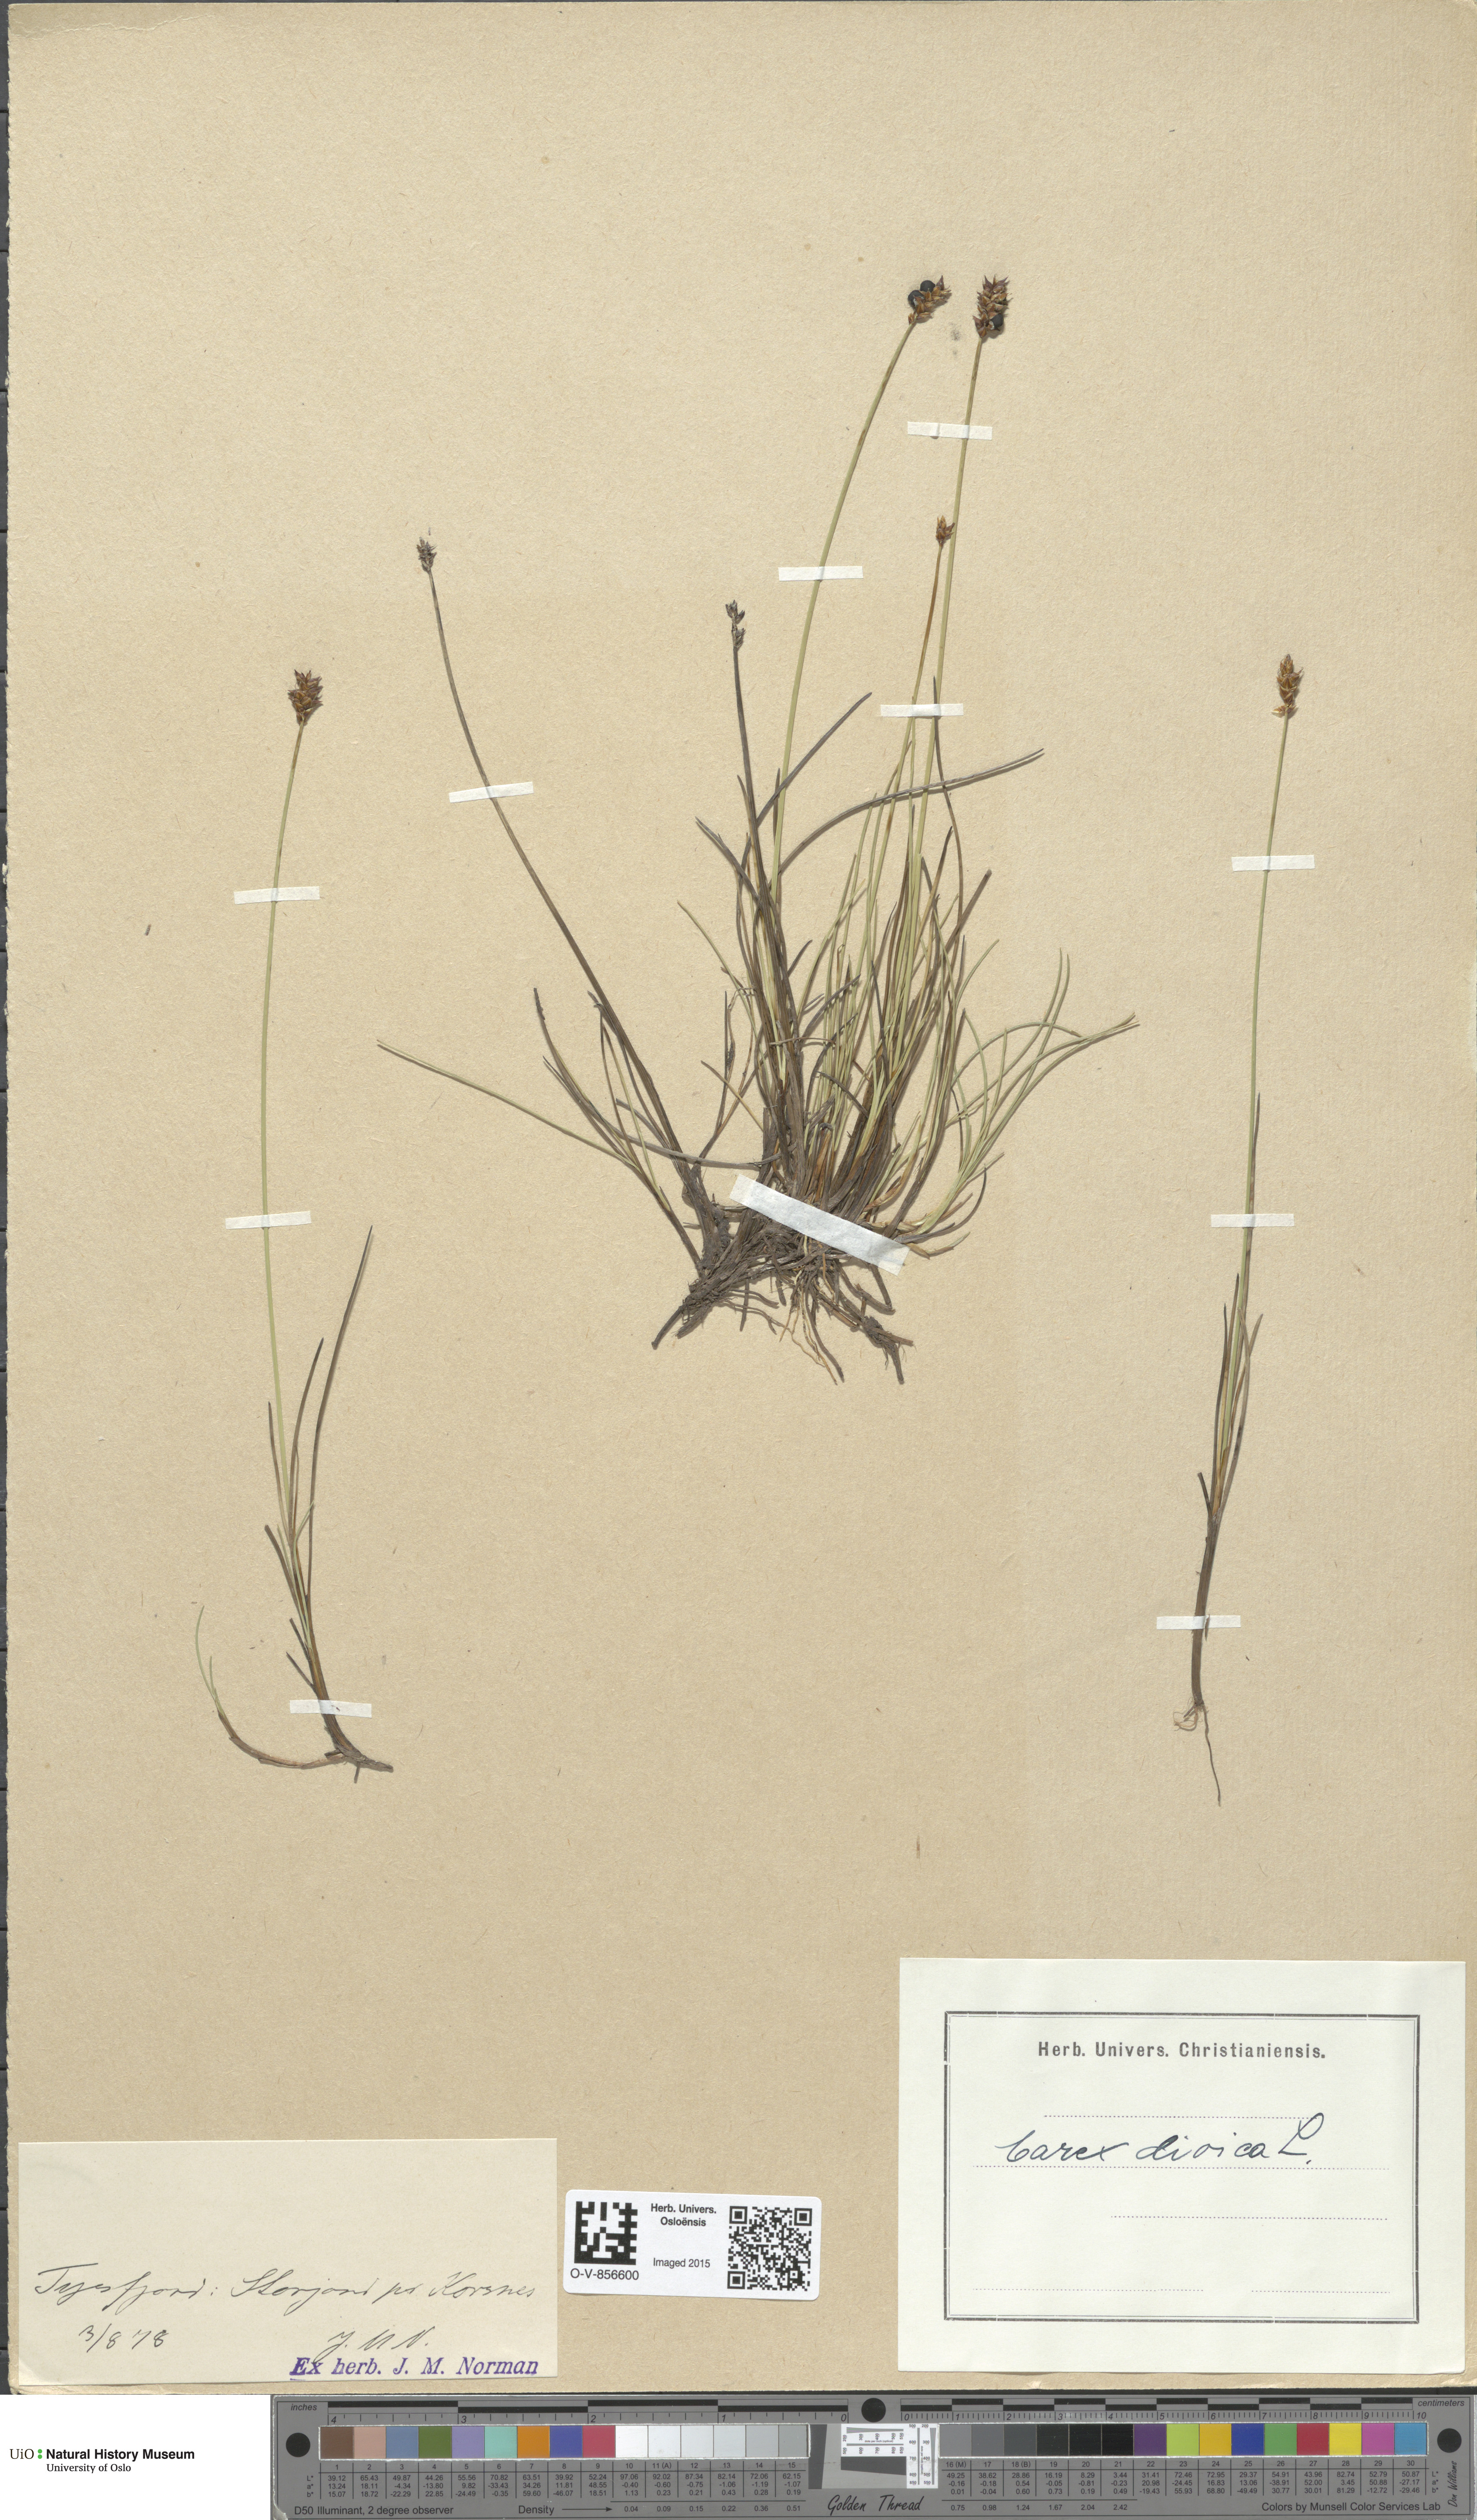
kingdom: Plantae
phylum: Tracheophyta
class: Liliopsida
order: Poales
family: Cyperaceae
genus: Carex
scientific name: Carex dioica
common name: Dioecious sedge
